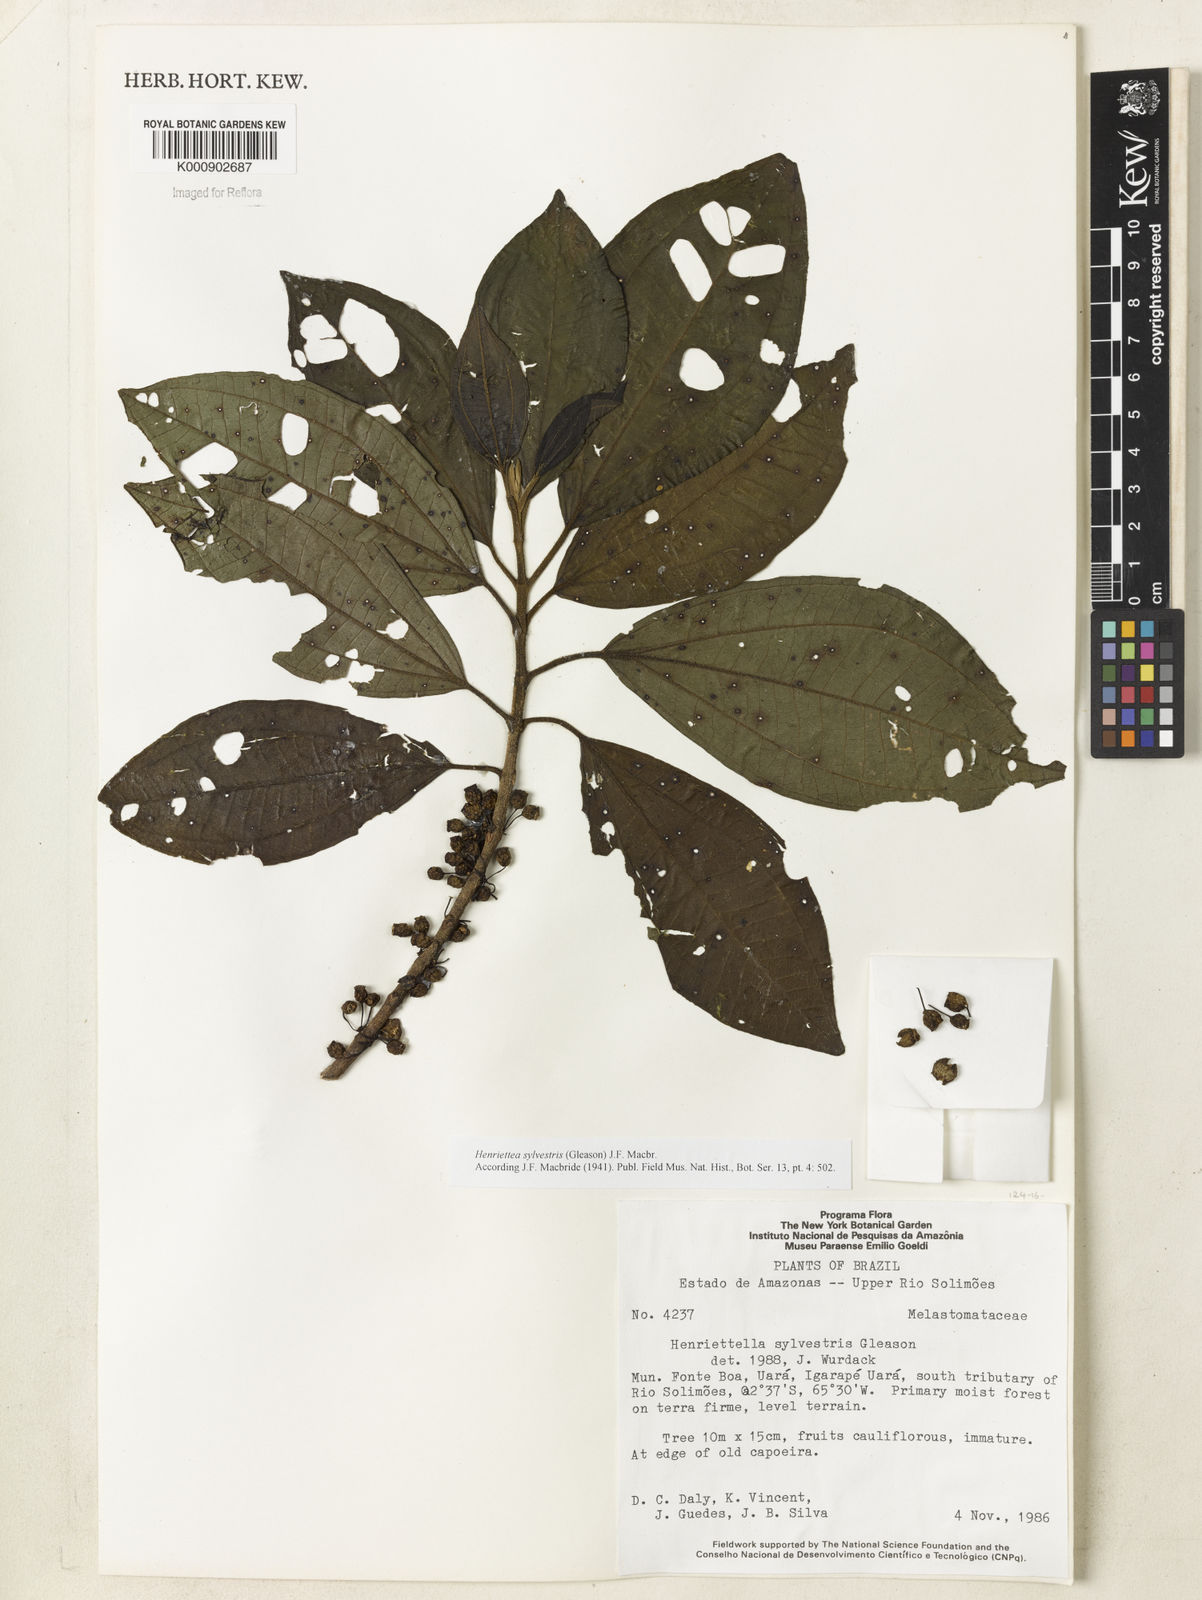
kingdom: Plantae
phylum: Tracheophyta
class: Magnoliopsida
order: Myrtales
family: Melastomataceae
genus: Henriettea
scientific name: Henriettea sylvestris
